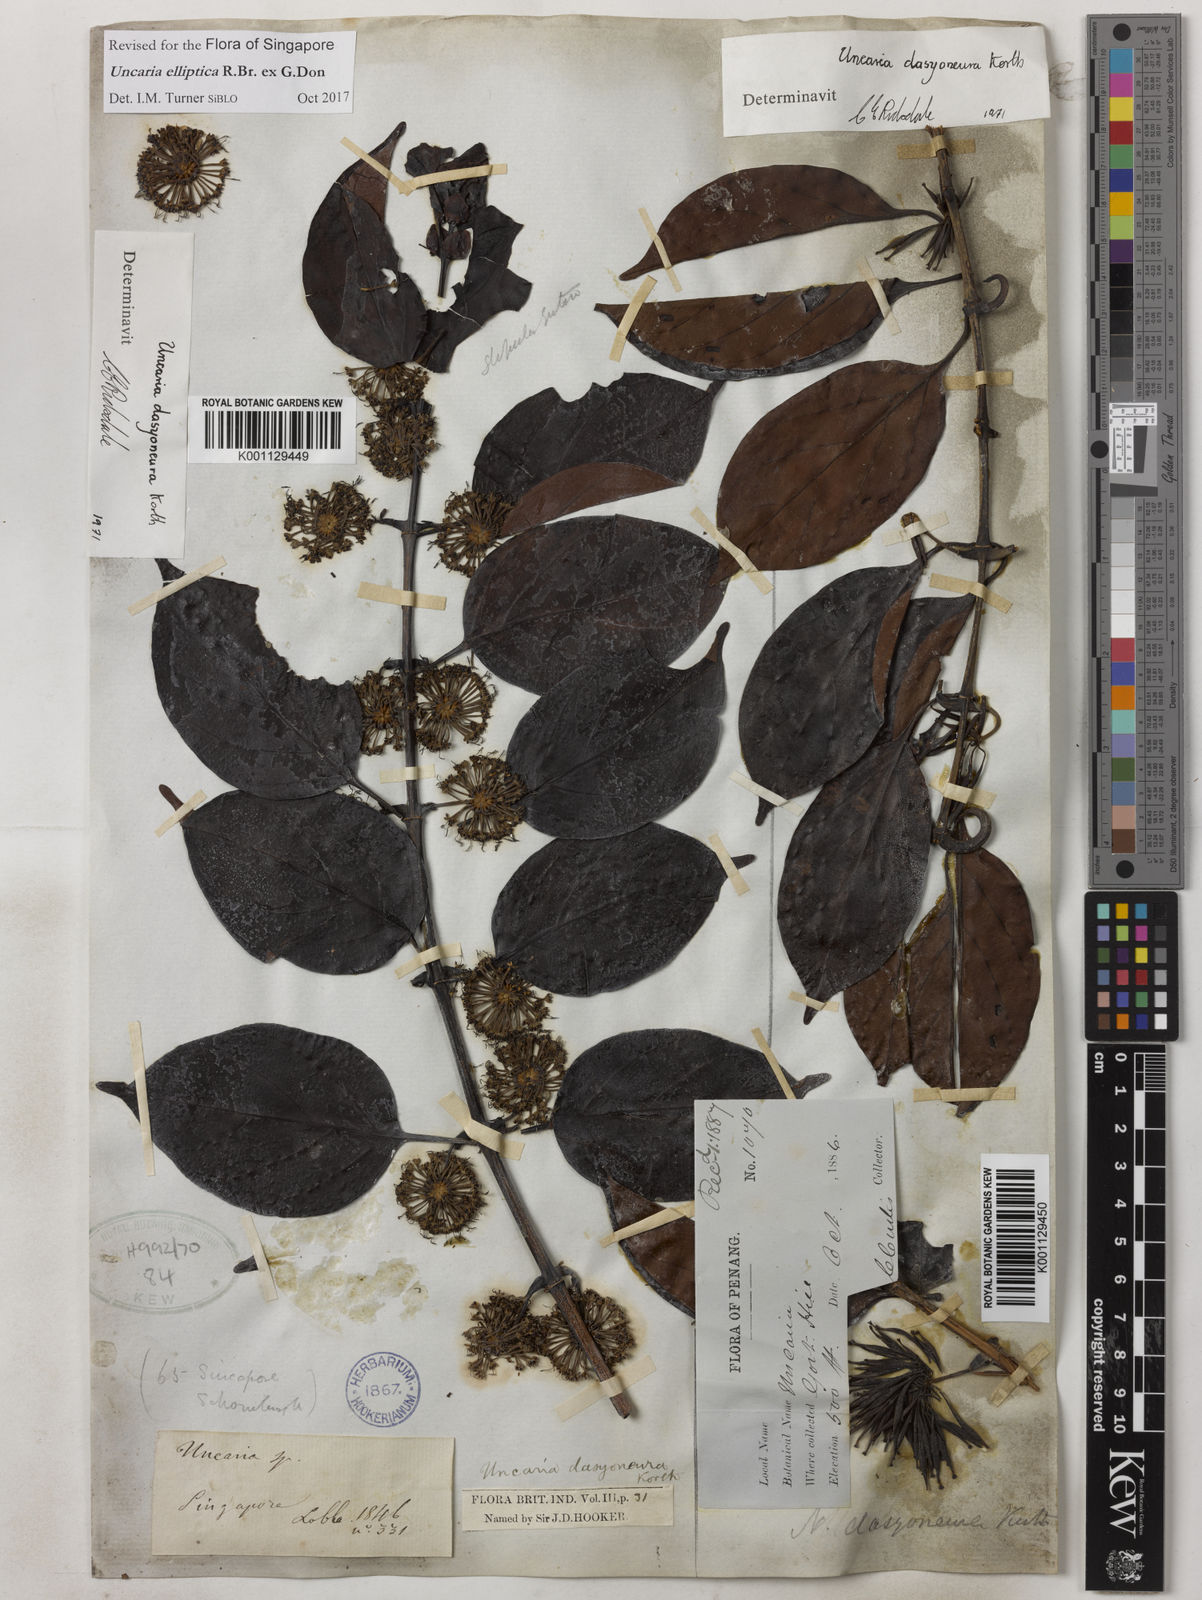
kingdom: Plantae
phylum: Tracheophyta
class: Magnoliopsida
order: Gentianales
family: Rubiaceae
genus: Uncaria
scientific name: Uncaria elliptica
